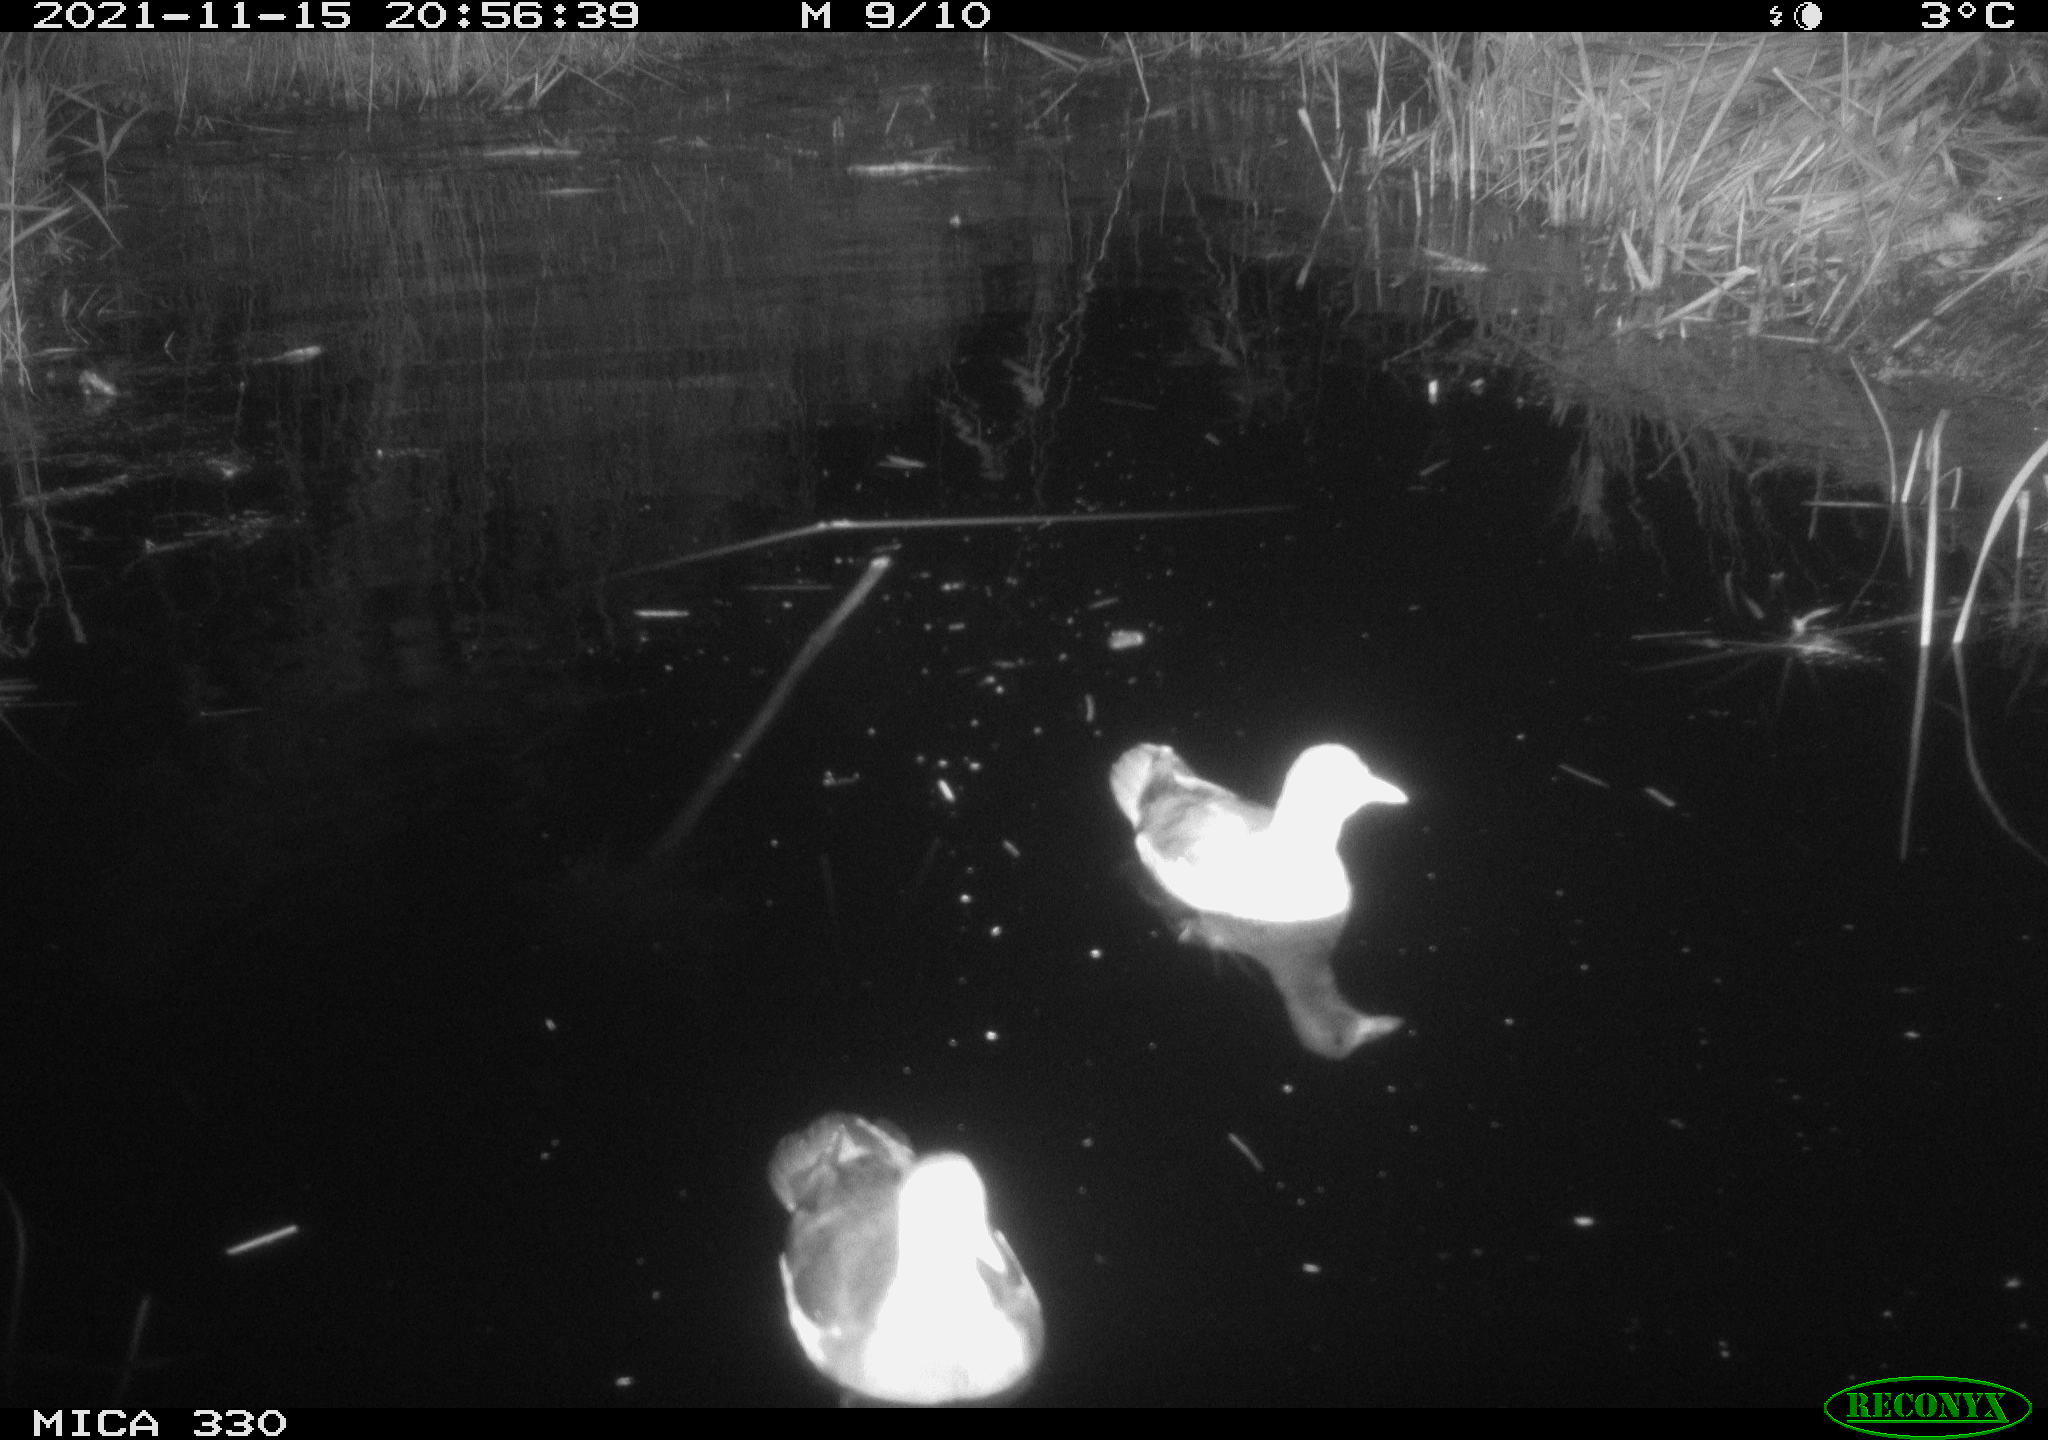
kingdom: Animalia
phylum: Chordata
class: Aves
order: Gruiformes
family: Rallidae
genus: Gallinula
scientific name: Gallinula chloropus
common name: Common moorhen
